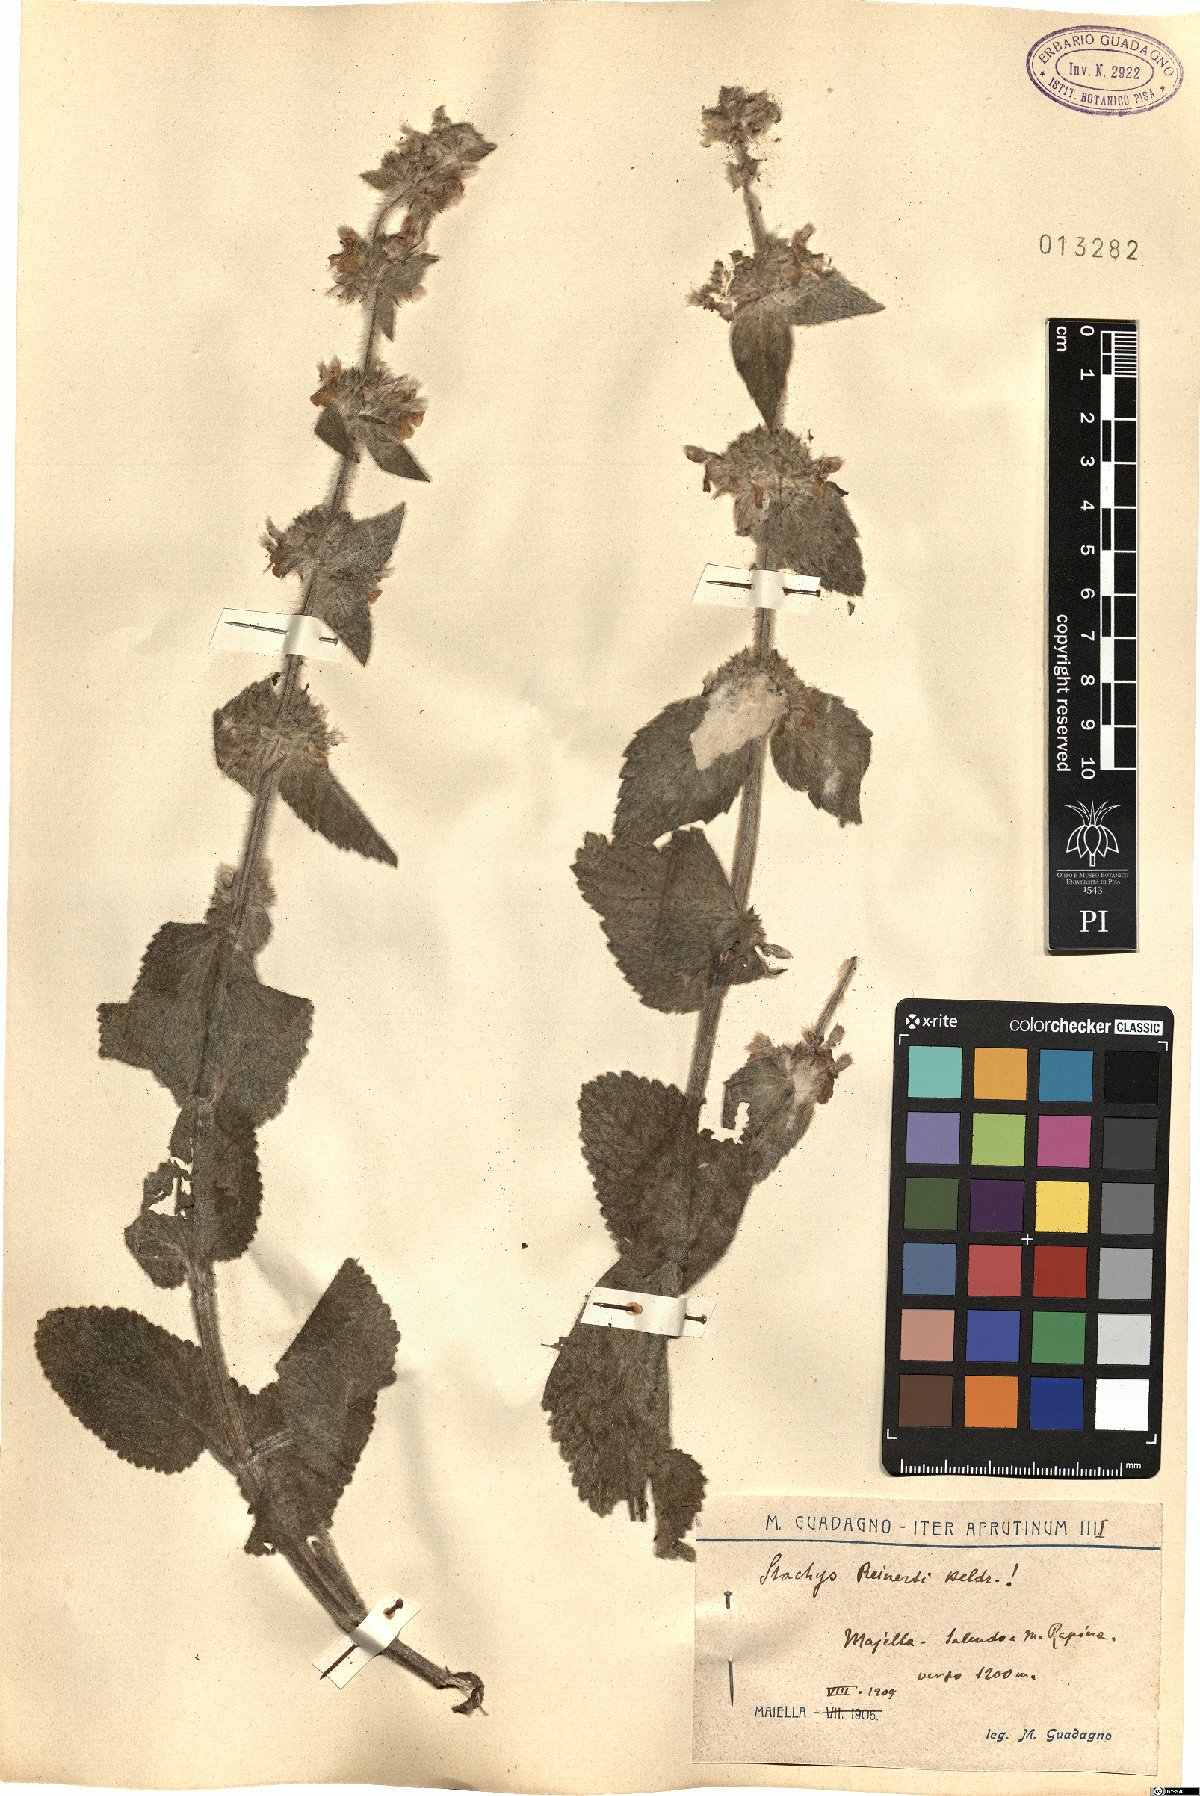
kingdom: Plantae
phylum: Tracheophyta
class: Magnoliopsida
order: Lamiales
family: Lamiaceae
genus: Stachys
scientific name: Stachys tymphaea
